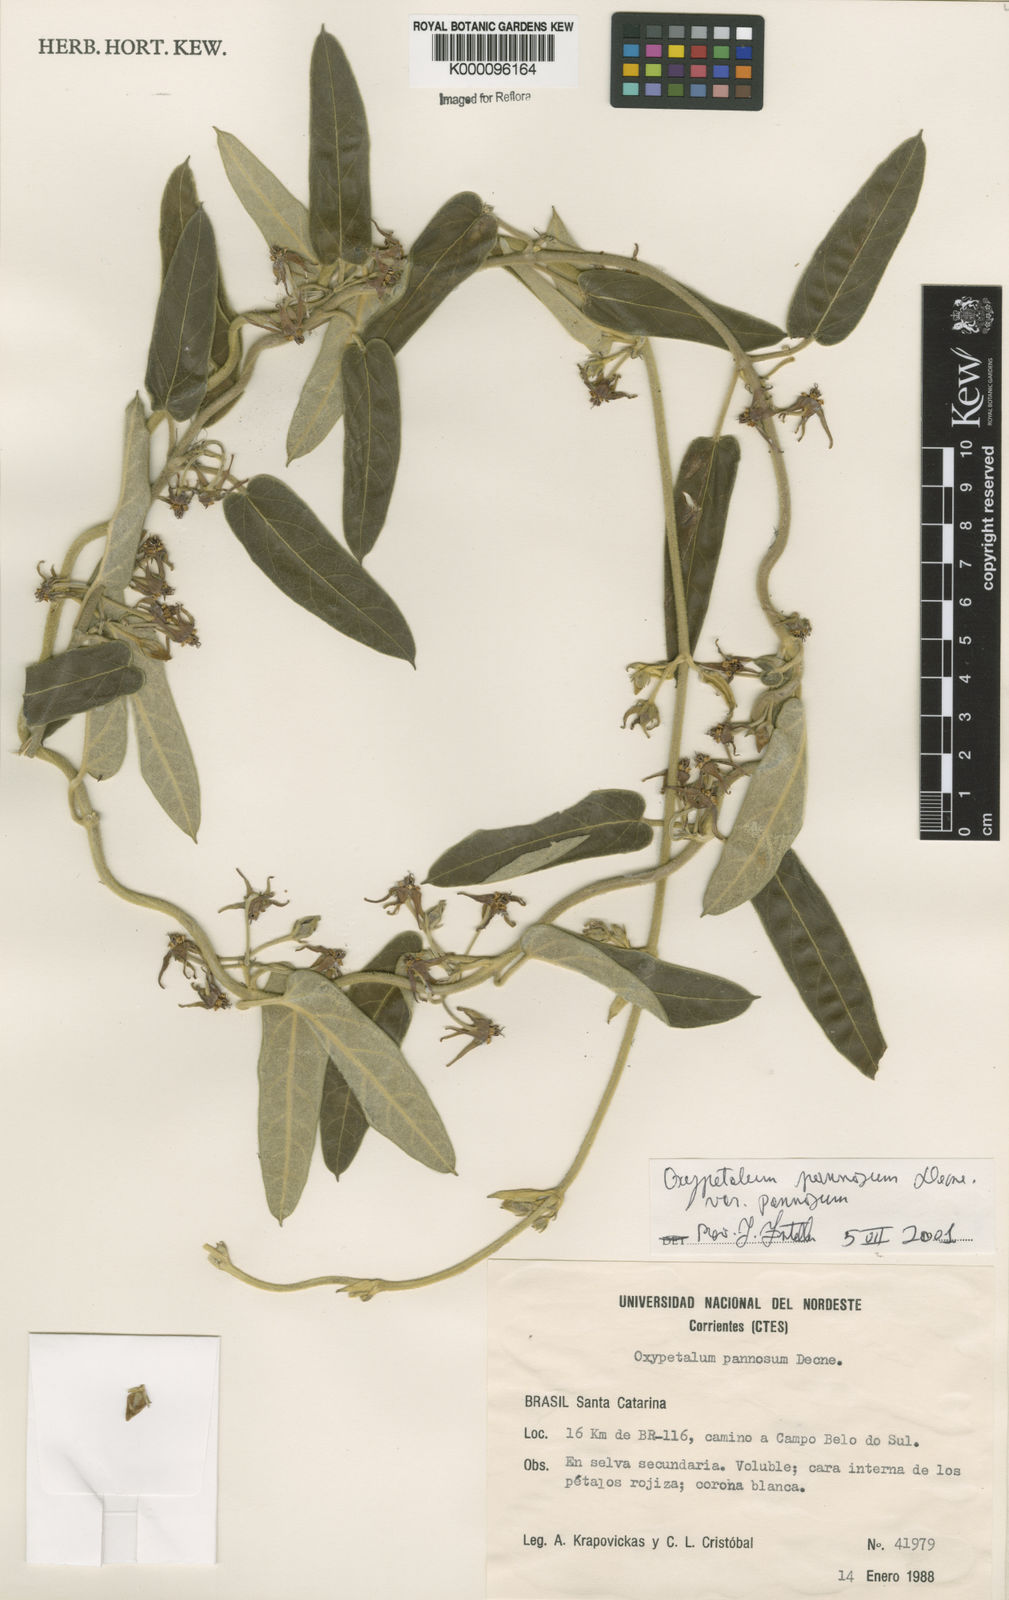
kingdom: Plantae
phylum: Tracheophyta
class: Magnoliopsida
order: Gentianales
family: Apocynaceae
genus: Oxypetalum
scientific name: Oxypetalum pannosum
